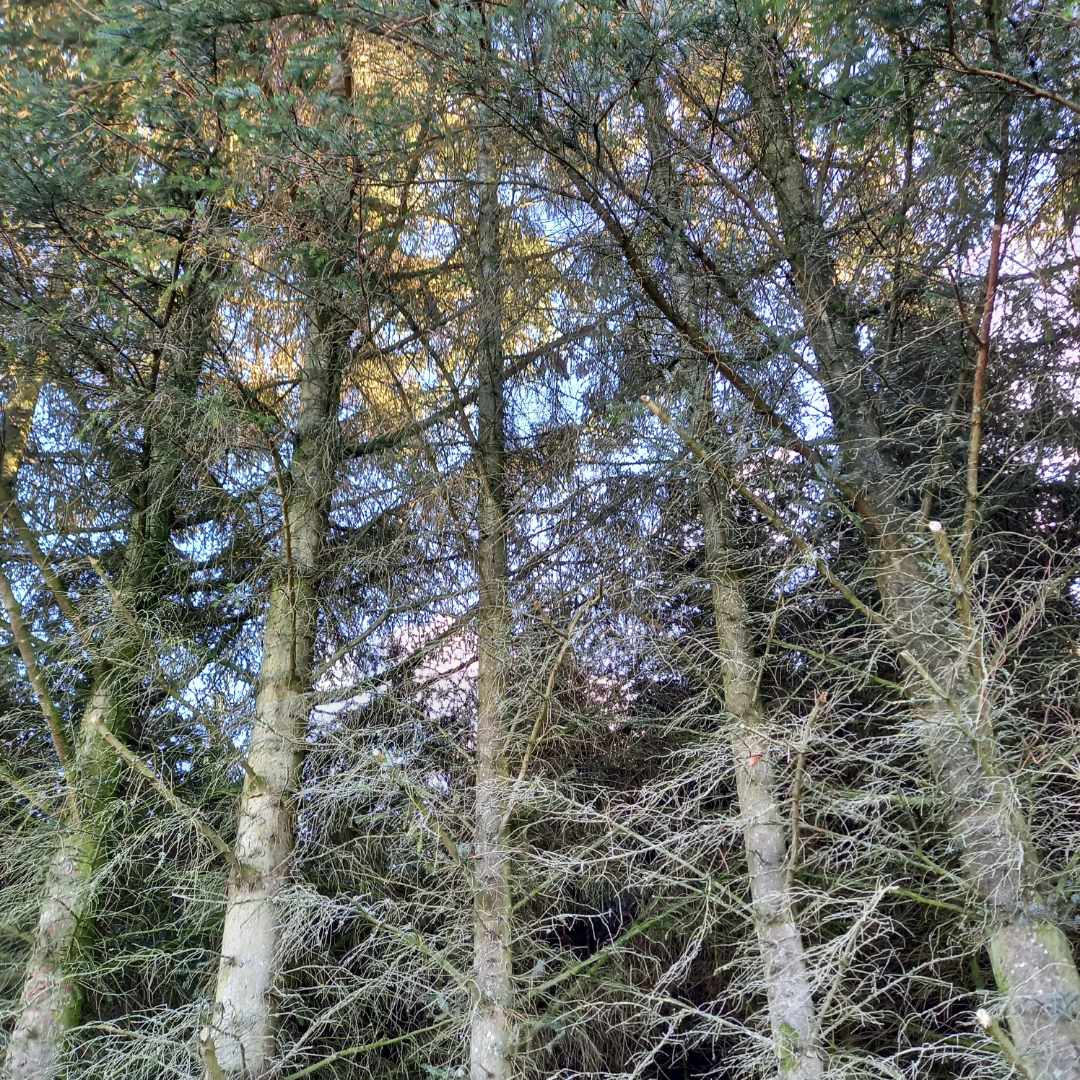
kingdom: Animalia
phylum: Chordata
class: Aves
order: Strigiformes
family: Strigidae
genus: Asio
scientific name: Asio otus
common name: Skovhornugle
